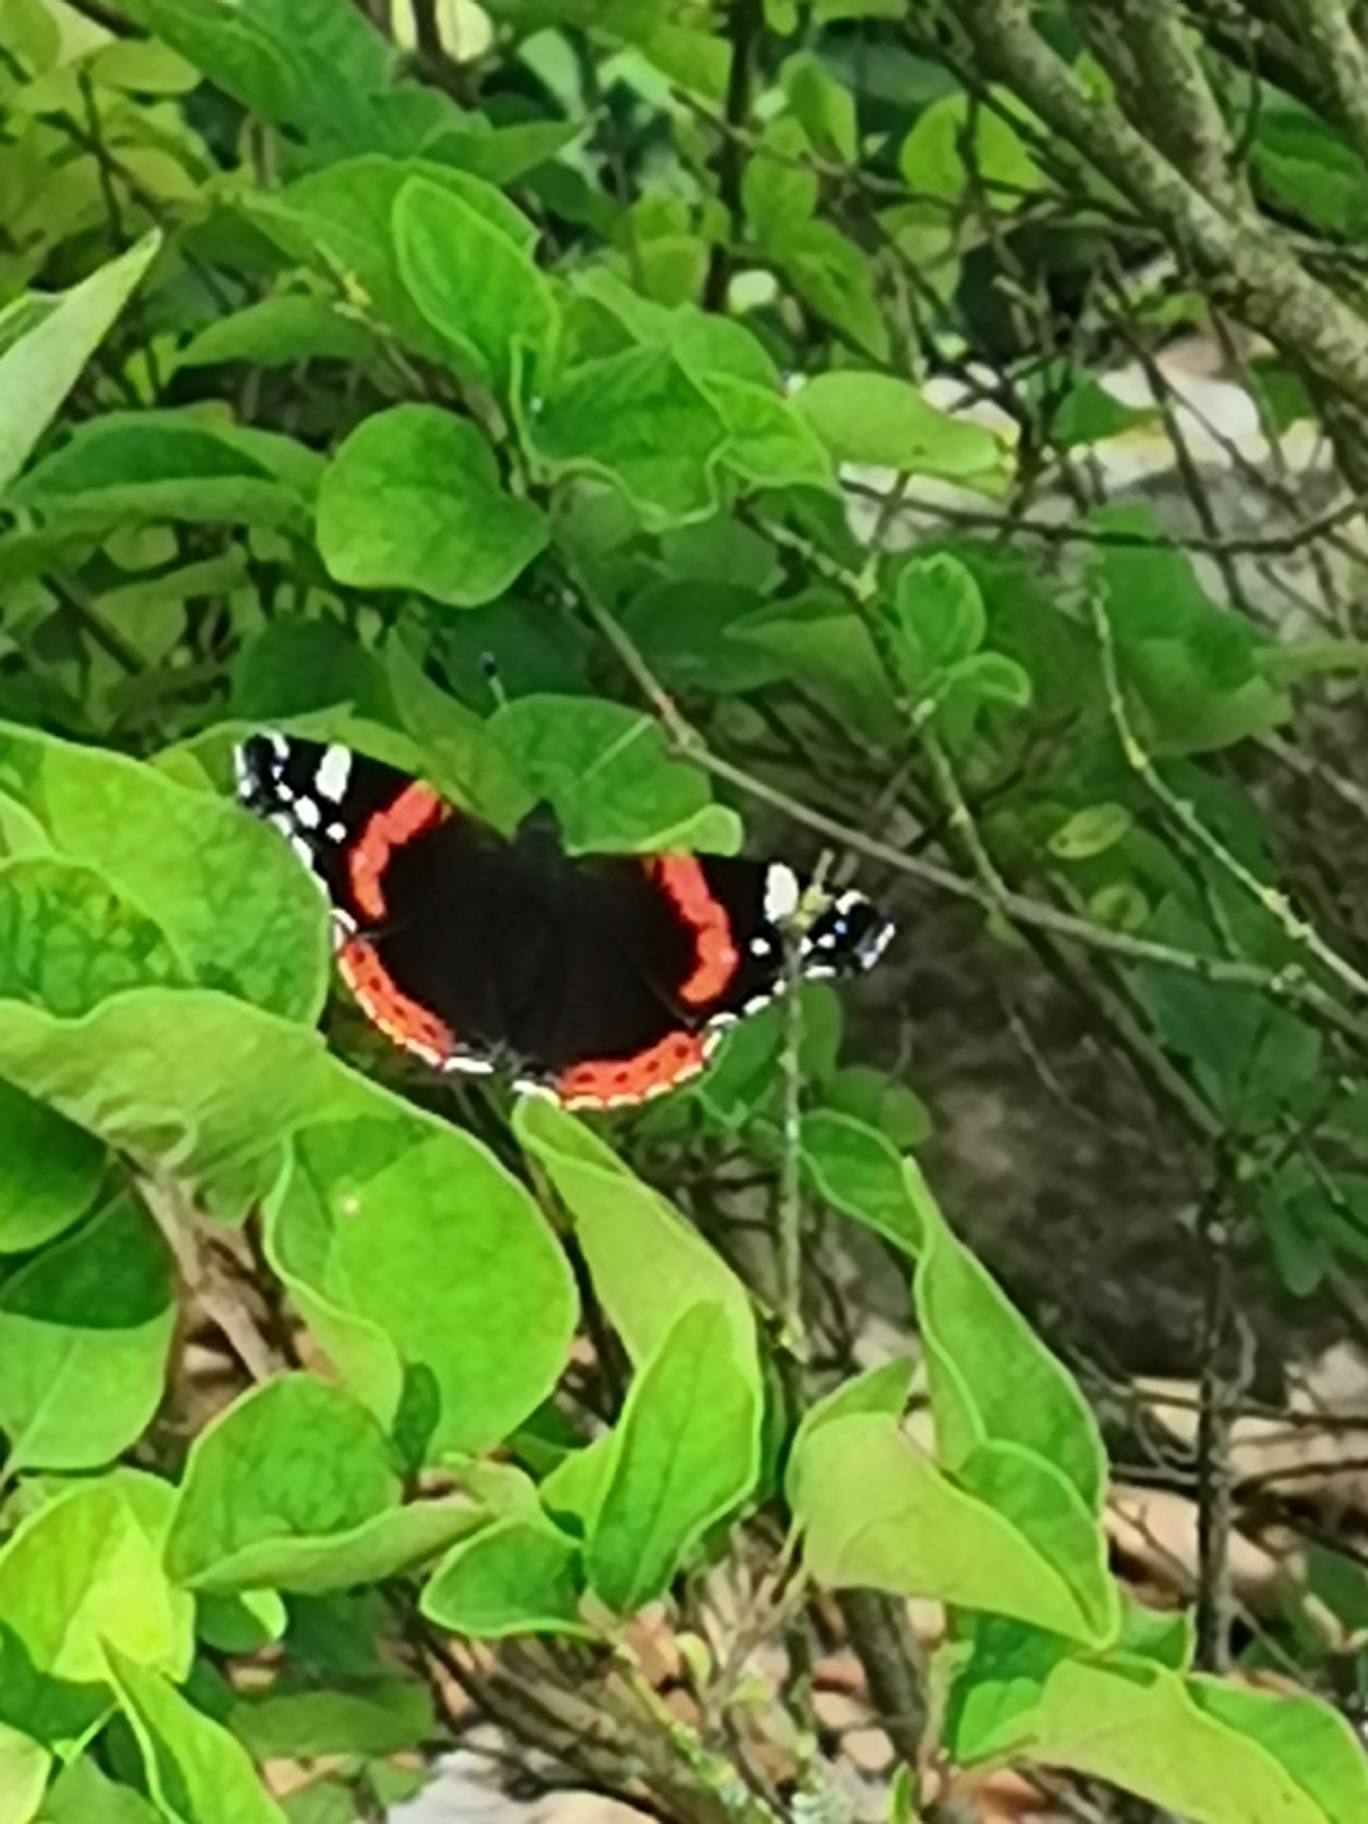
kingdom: Animalia
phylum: Arthropoda
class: Insecta
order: Lepidoptera
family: Nymphalidae
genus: Vanessa
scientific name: Vanessa atalanta
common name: Admiral
